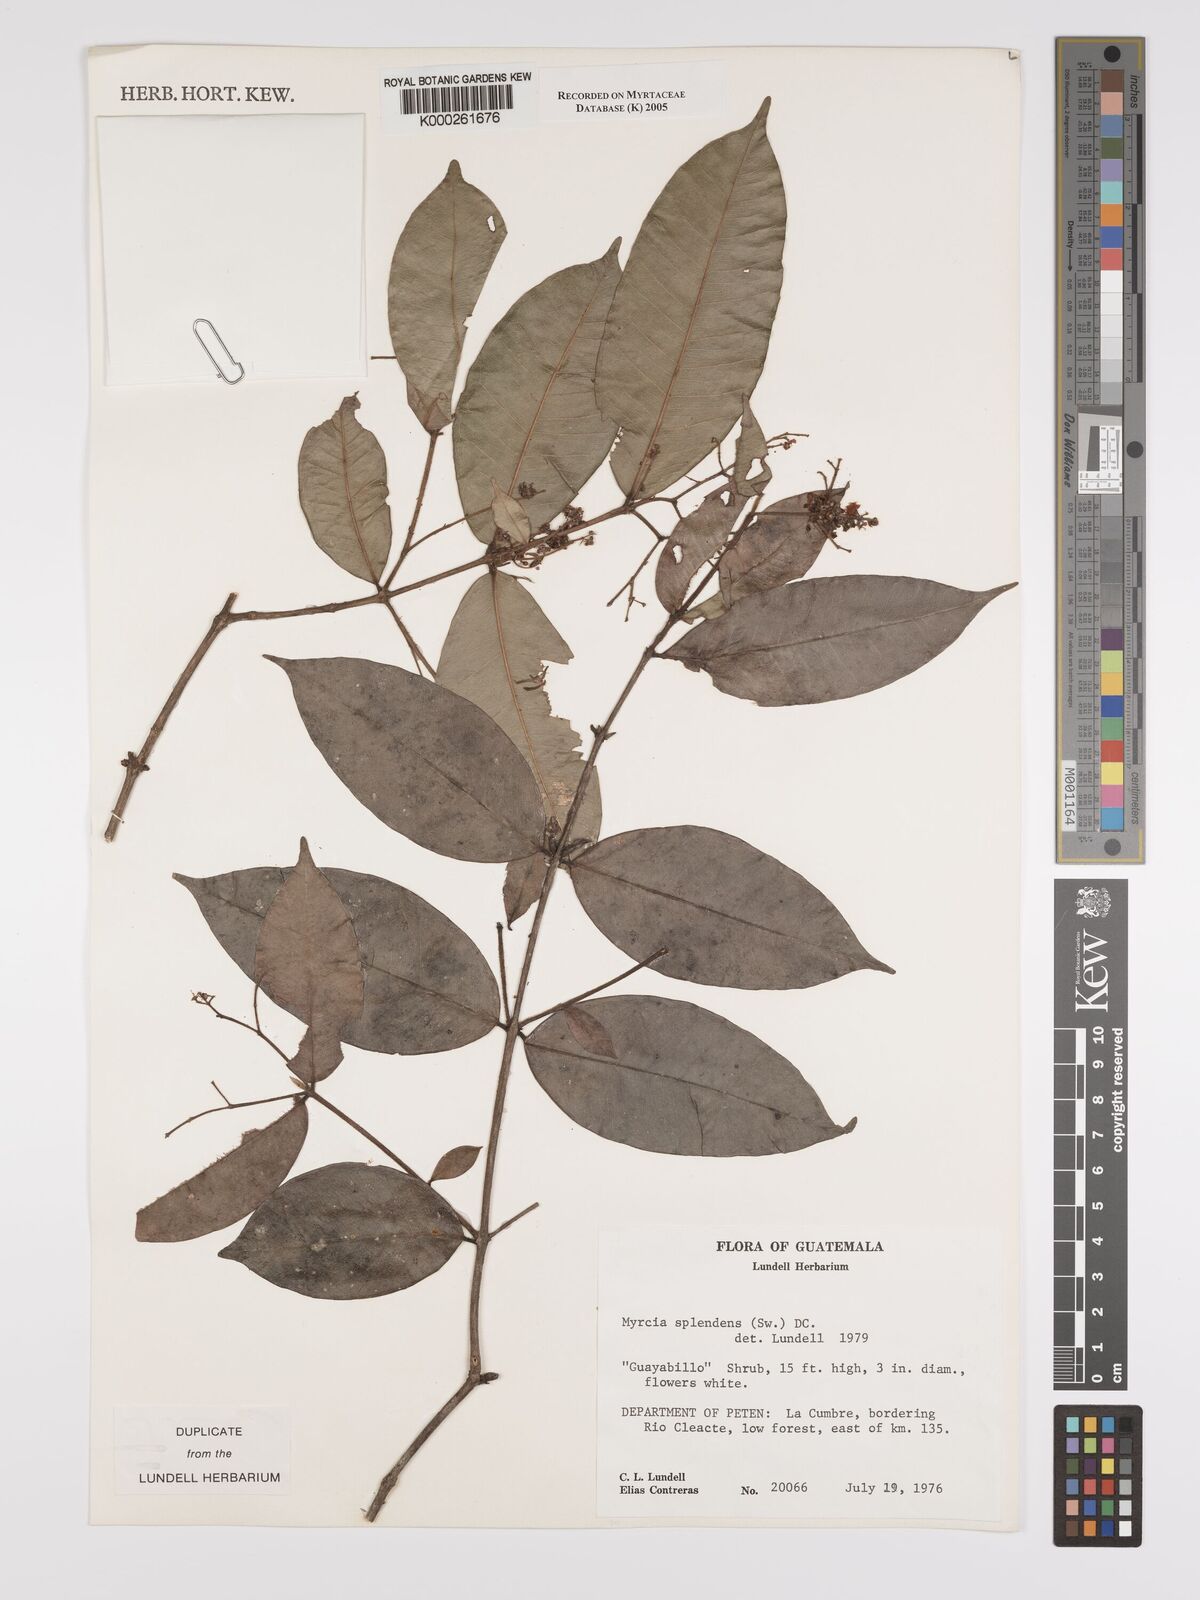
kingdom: Plantae
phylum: Tracheophyta
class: Magnoliopsida
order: Myrtales
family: Myrtaceae
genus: Myrcia
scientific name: Myrcia splendens
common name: Surinam cherry
